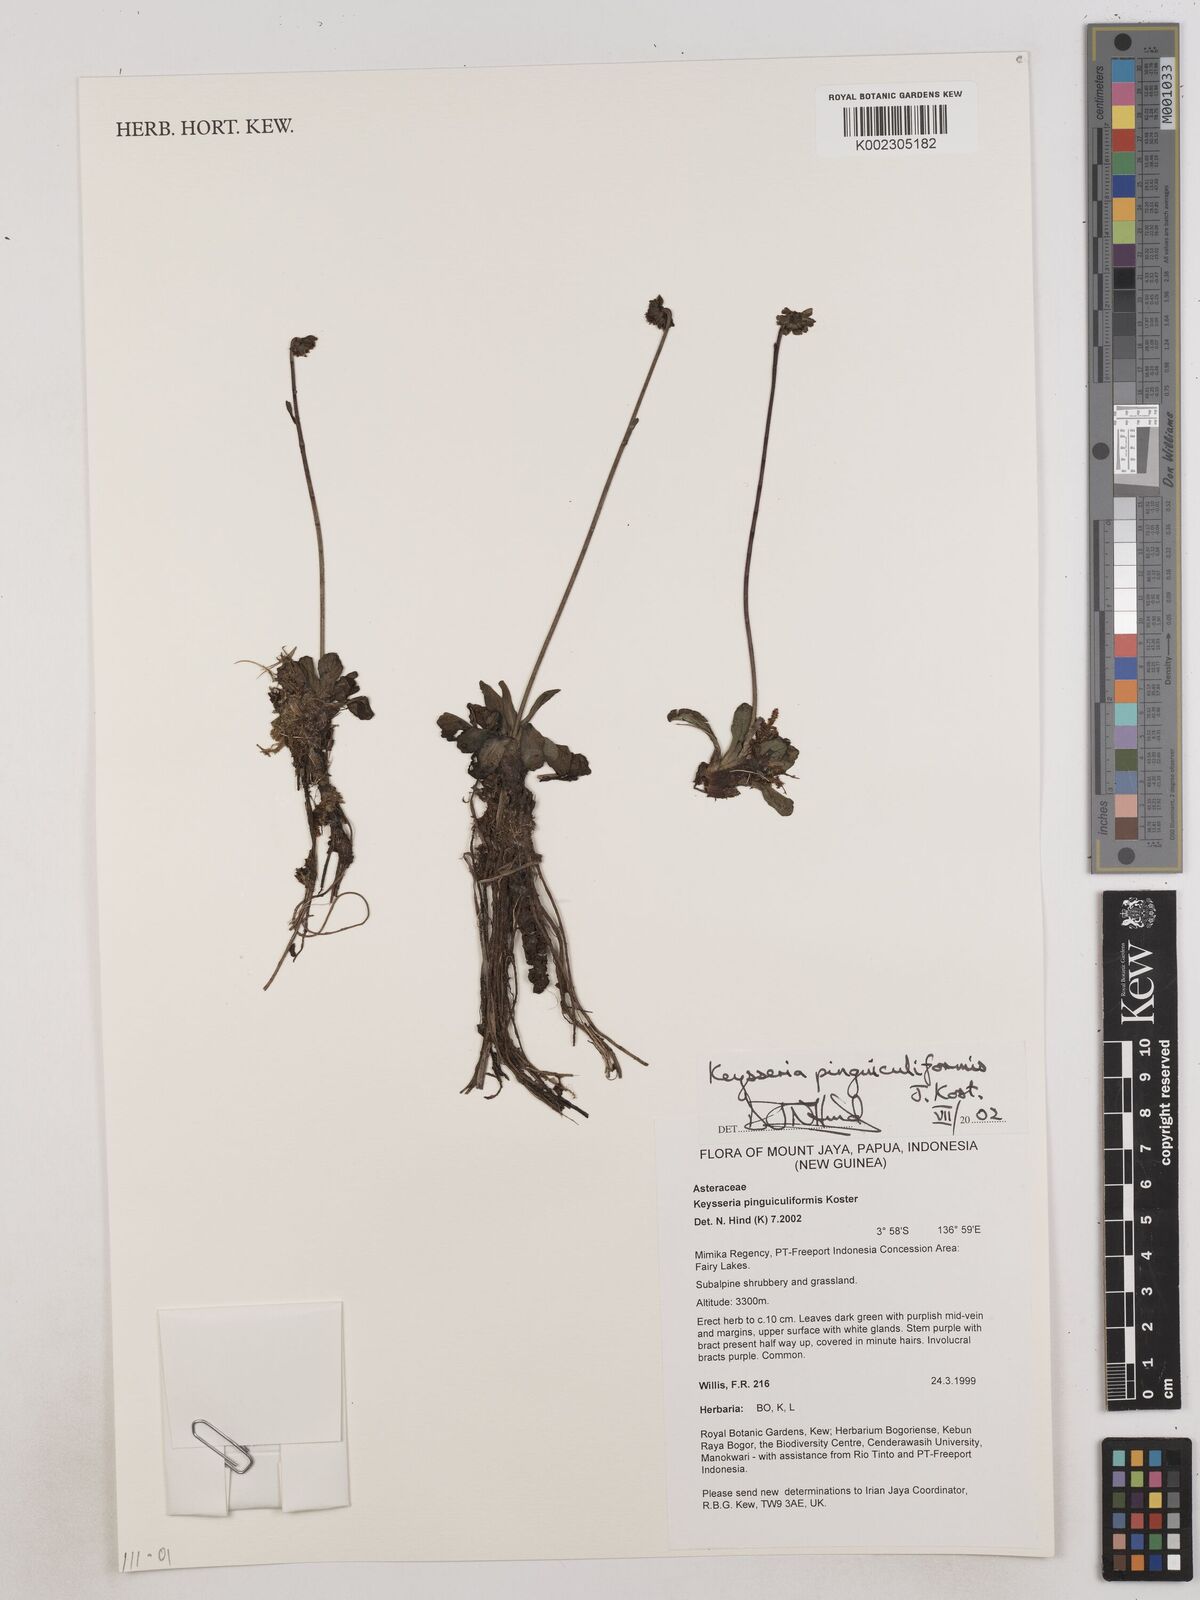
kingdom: Plantae
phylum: Tracheophyta
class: Magnoliopsida
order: Asterales
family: Asteraceae
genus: Keysseria
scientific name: Keysseria pinguiculiformis
